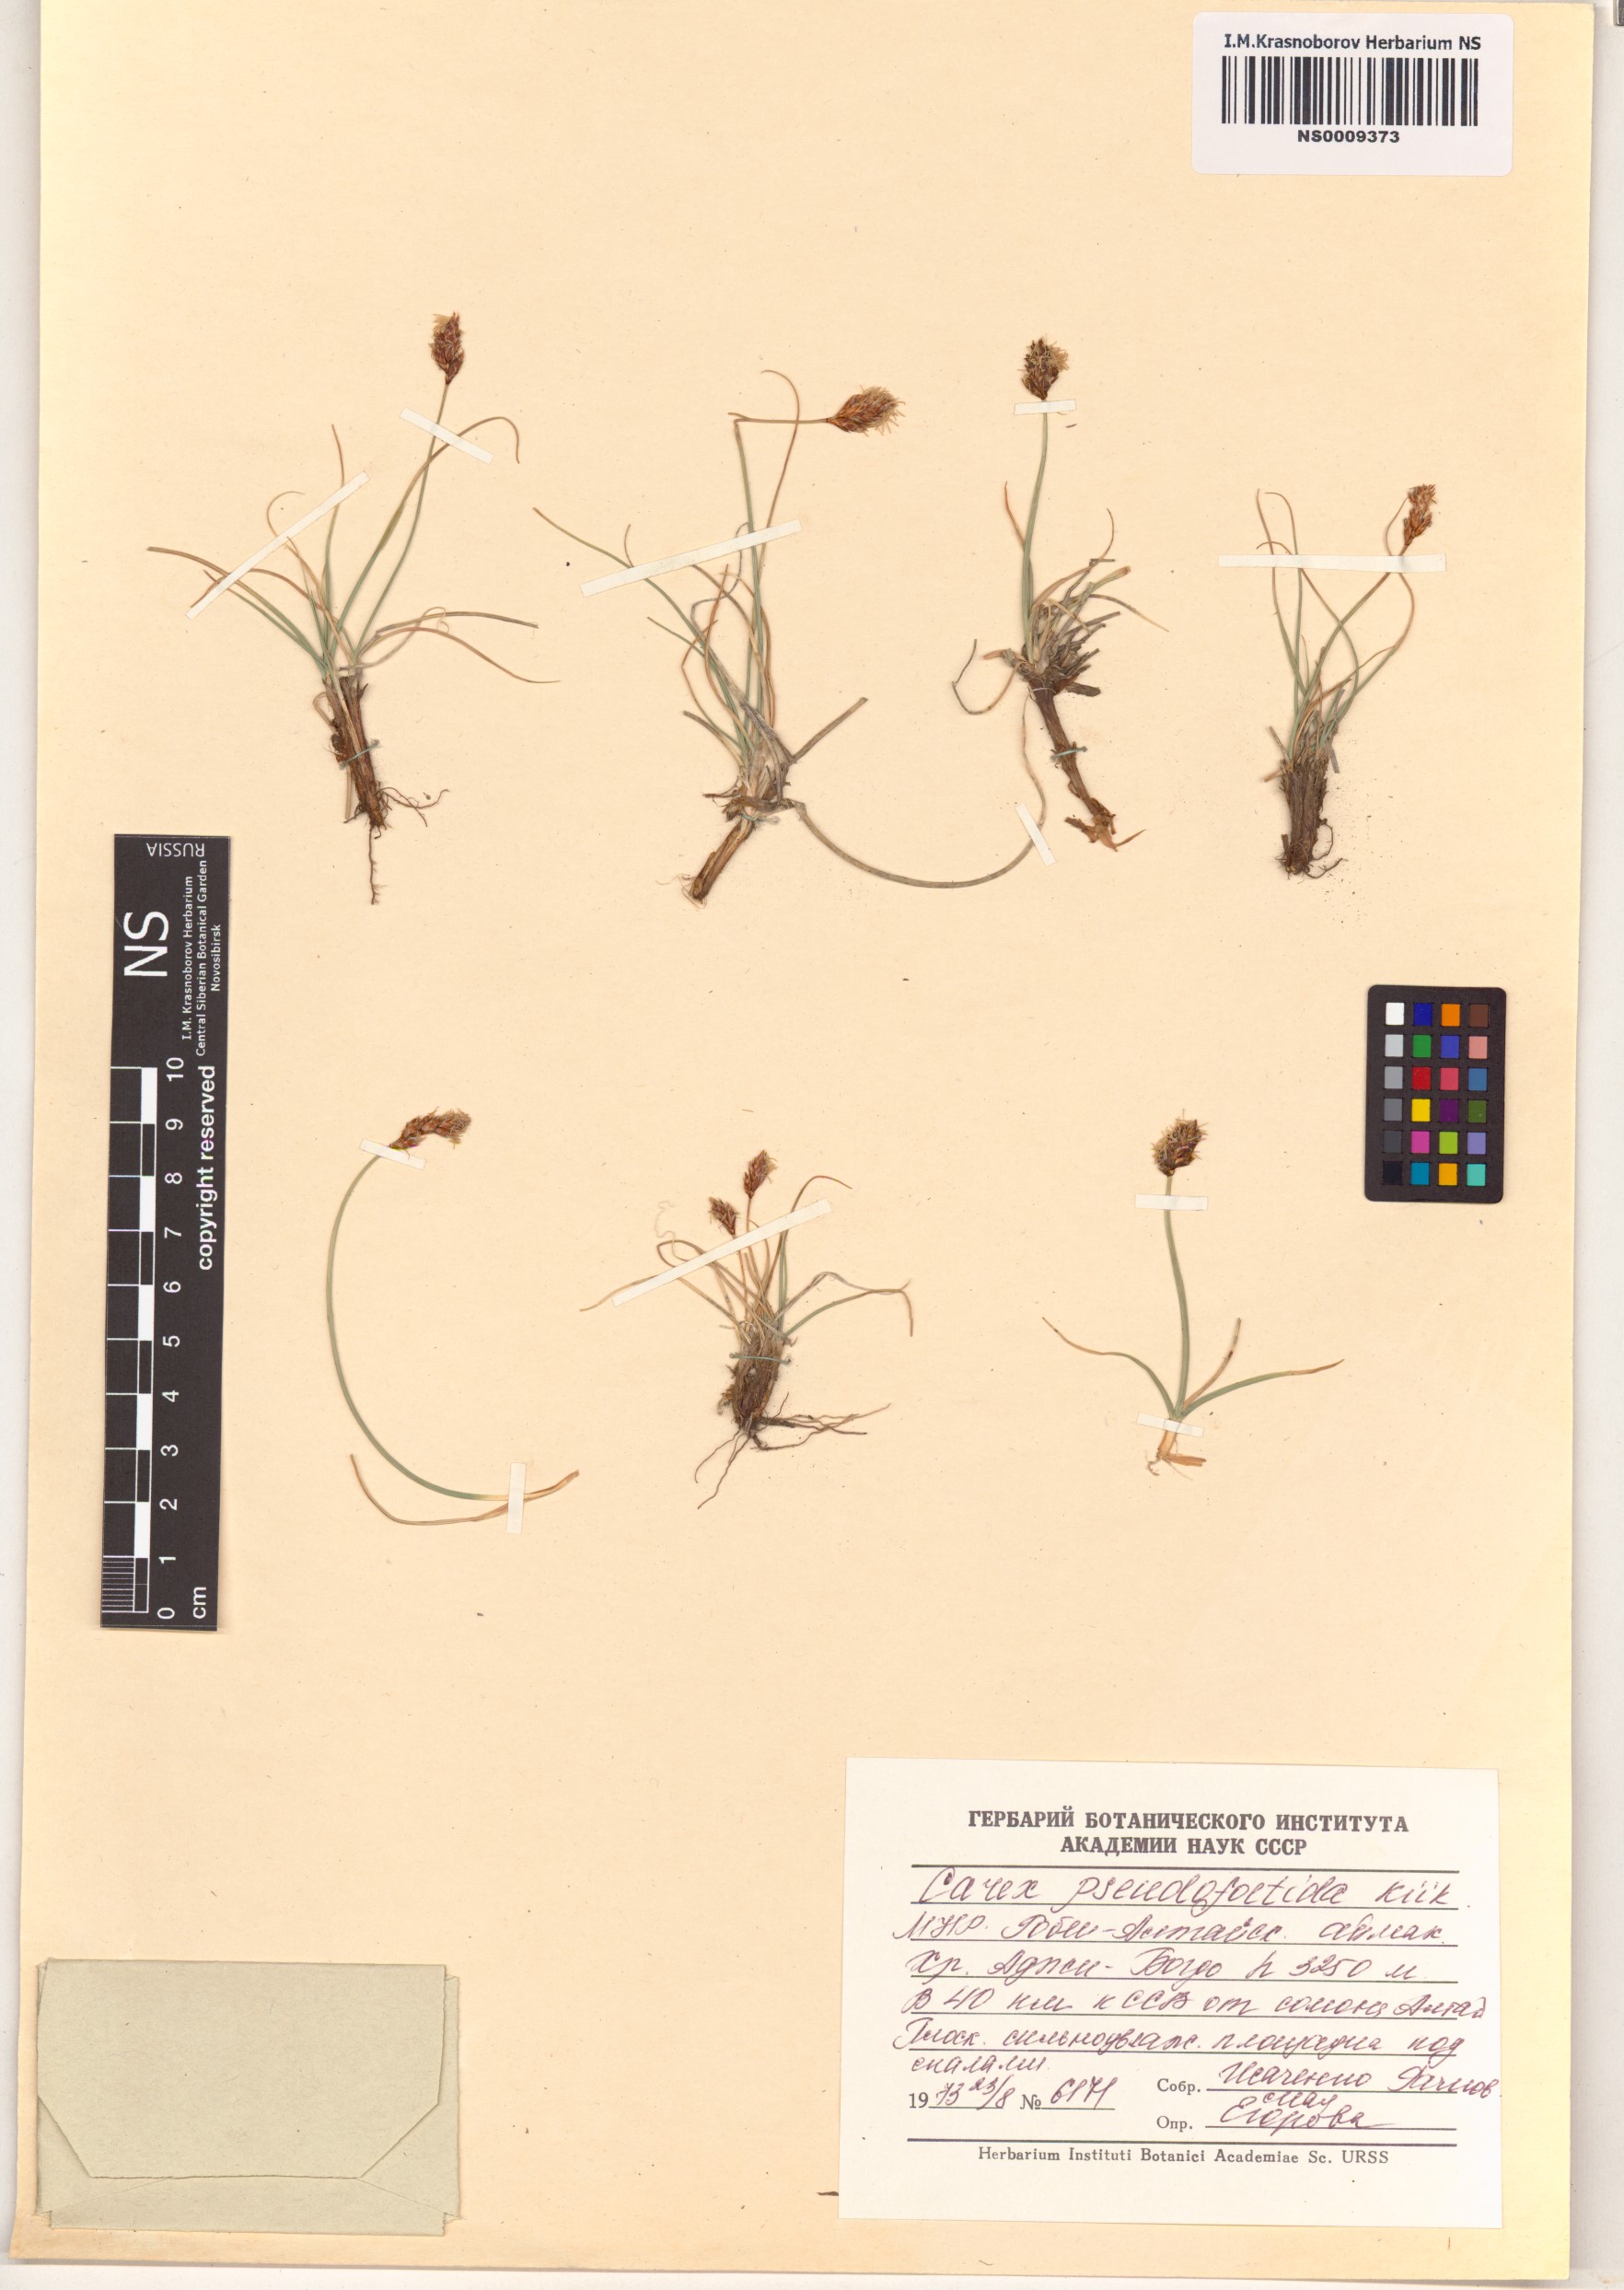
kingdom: Plantae
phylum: Tracheophyta
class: Liliopsida
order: Poales
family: Cyperaceae
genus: Carex
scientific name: Carex pseudofoetida
